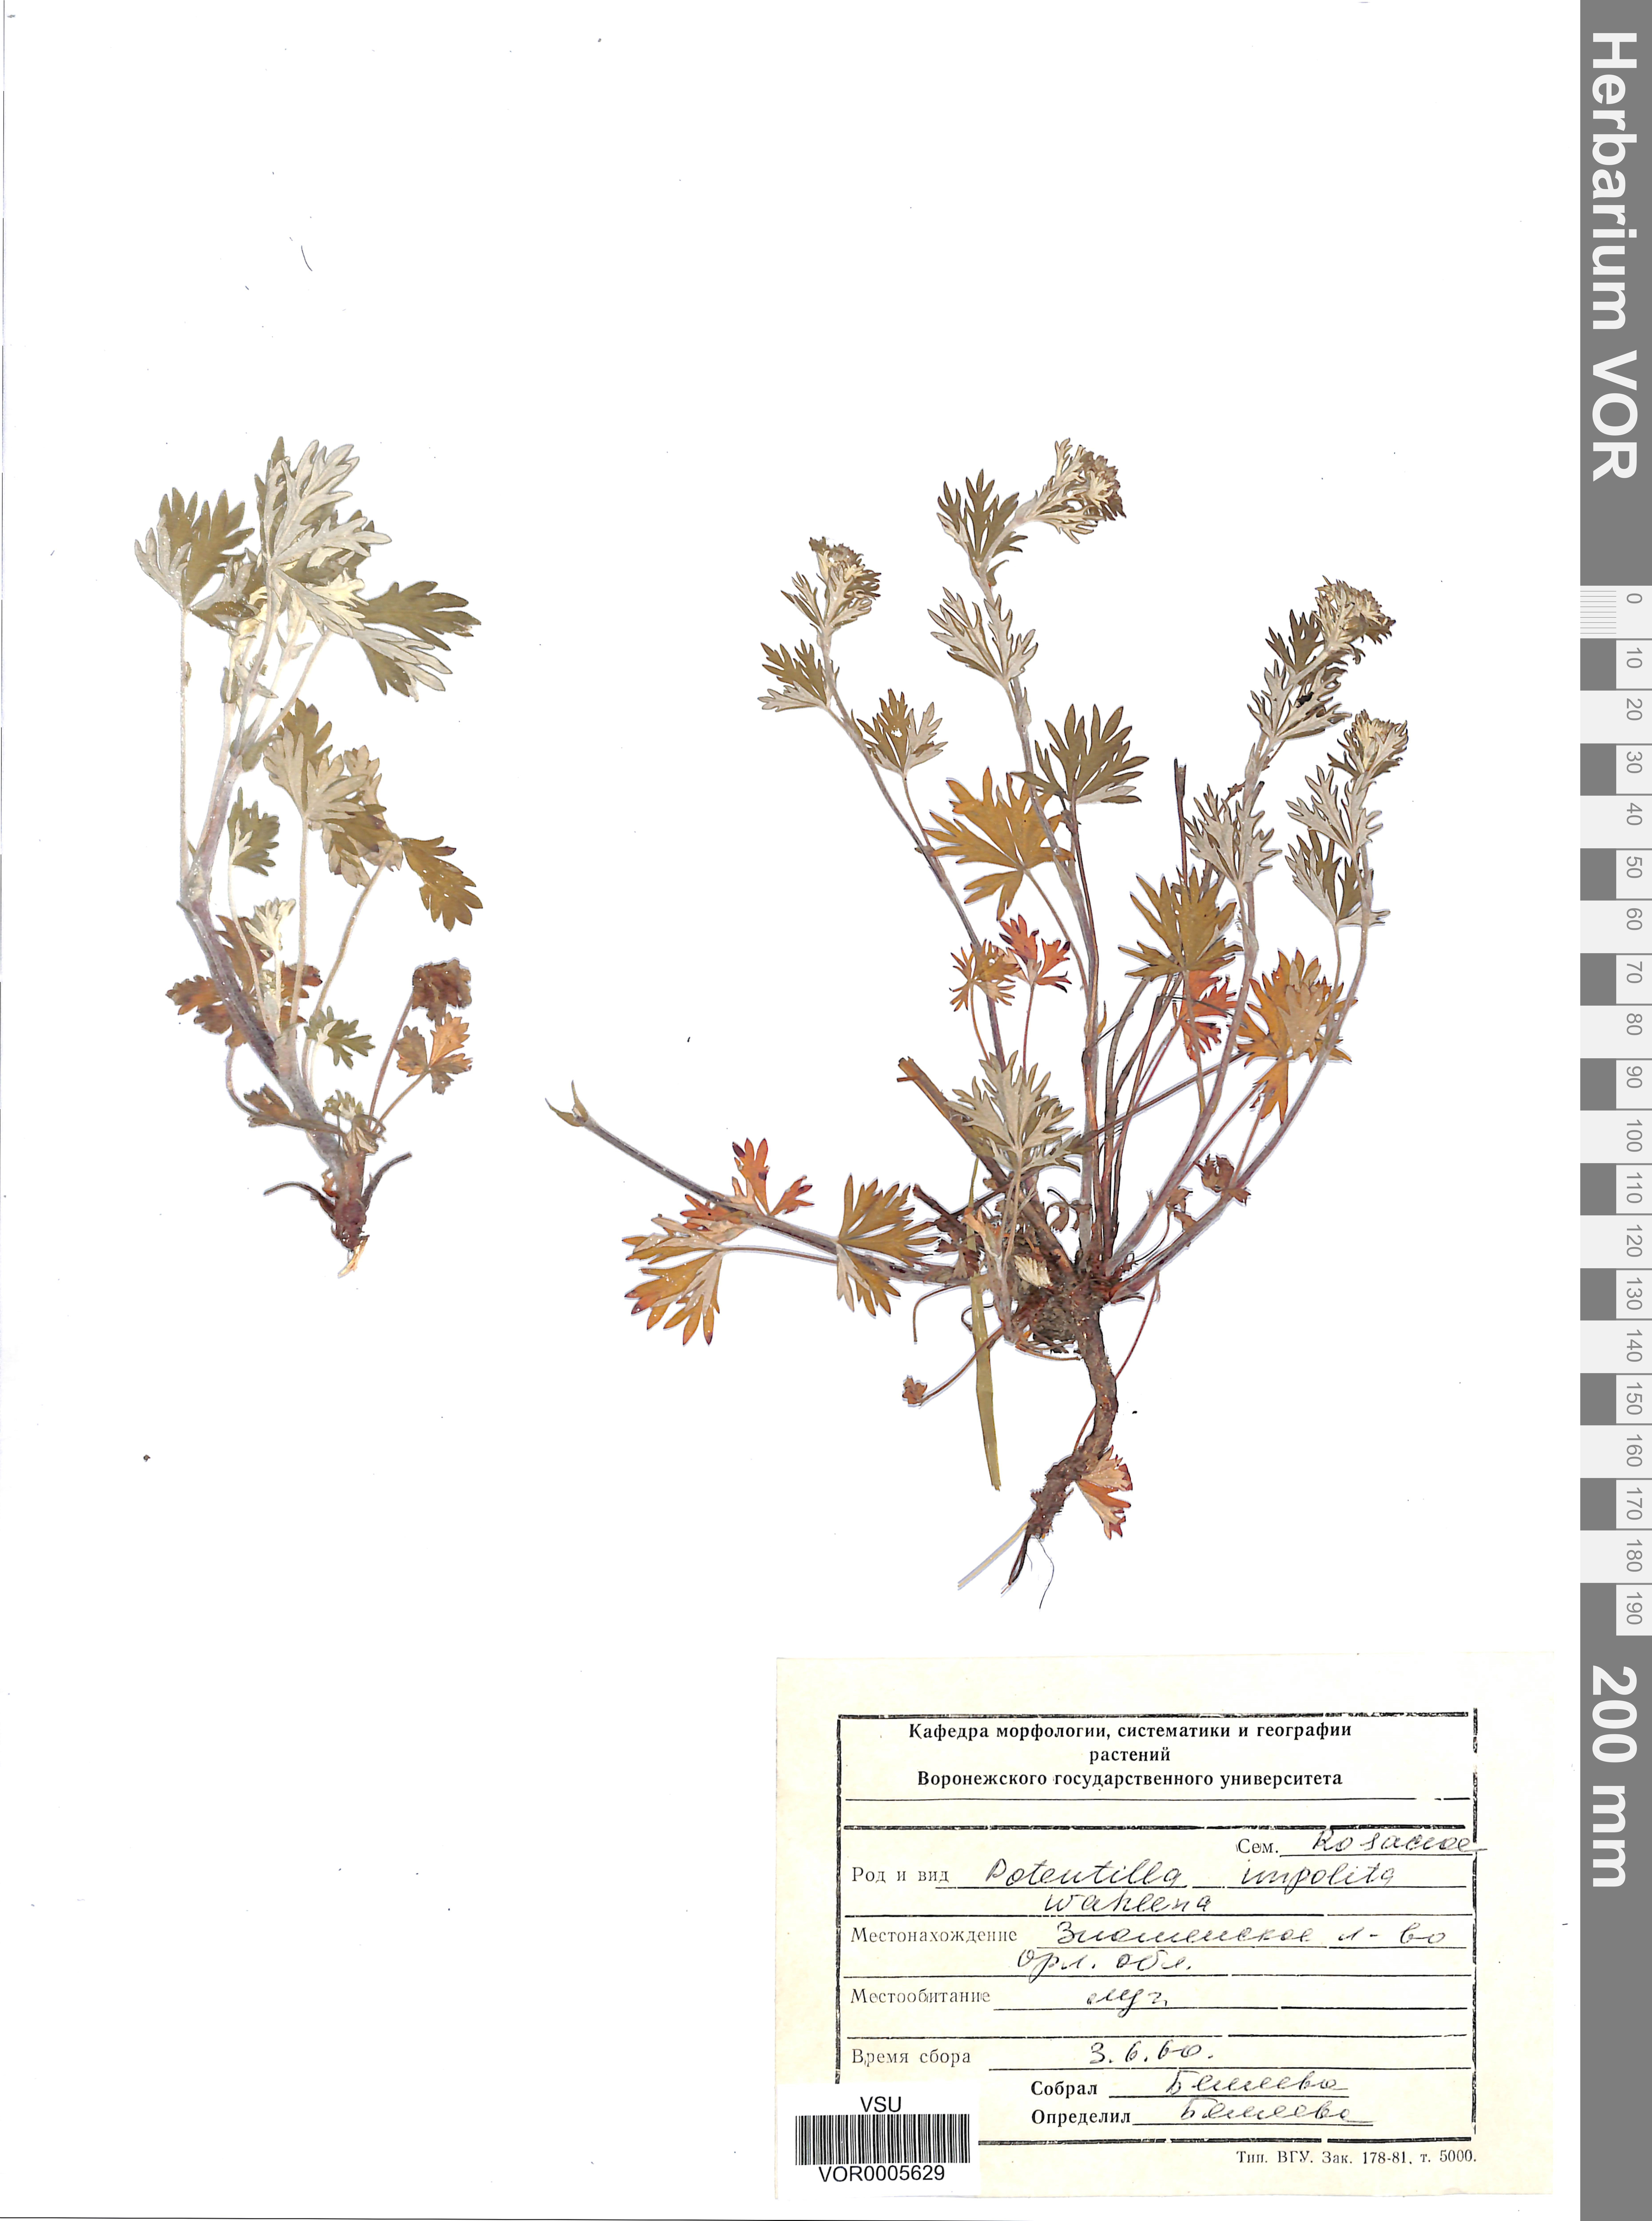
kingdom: Plantae
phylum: Tracheophyta
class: Magnoliopsida
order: Rosales
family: Rosaceae
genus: Potentilla
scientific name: Potentilla inclinata
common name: Grey cinquefoil
